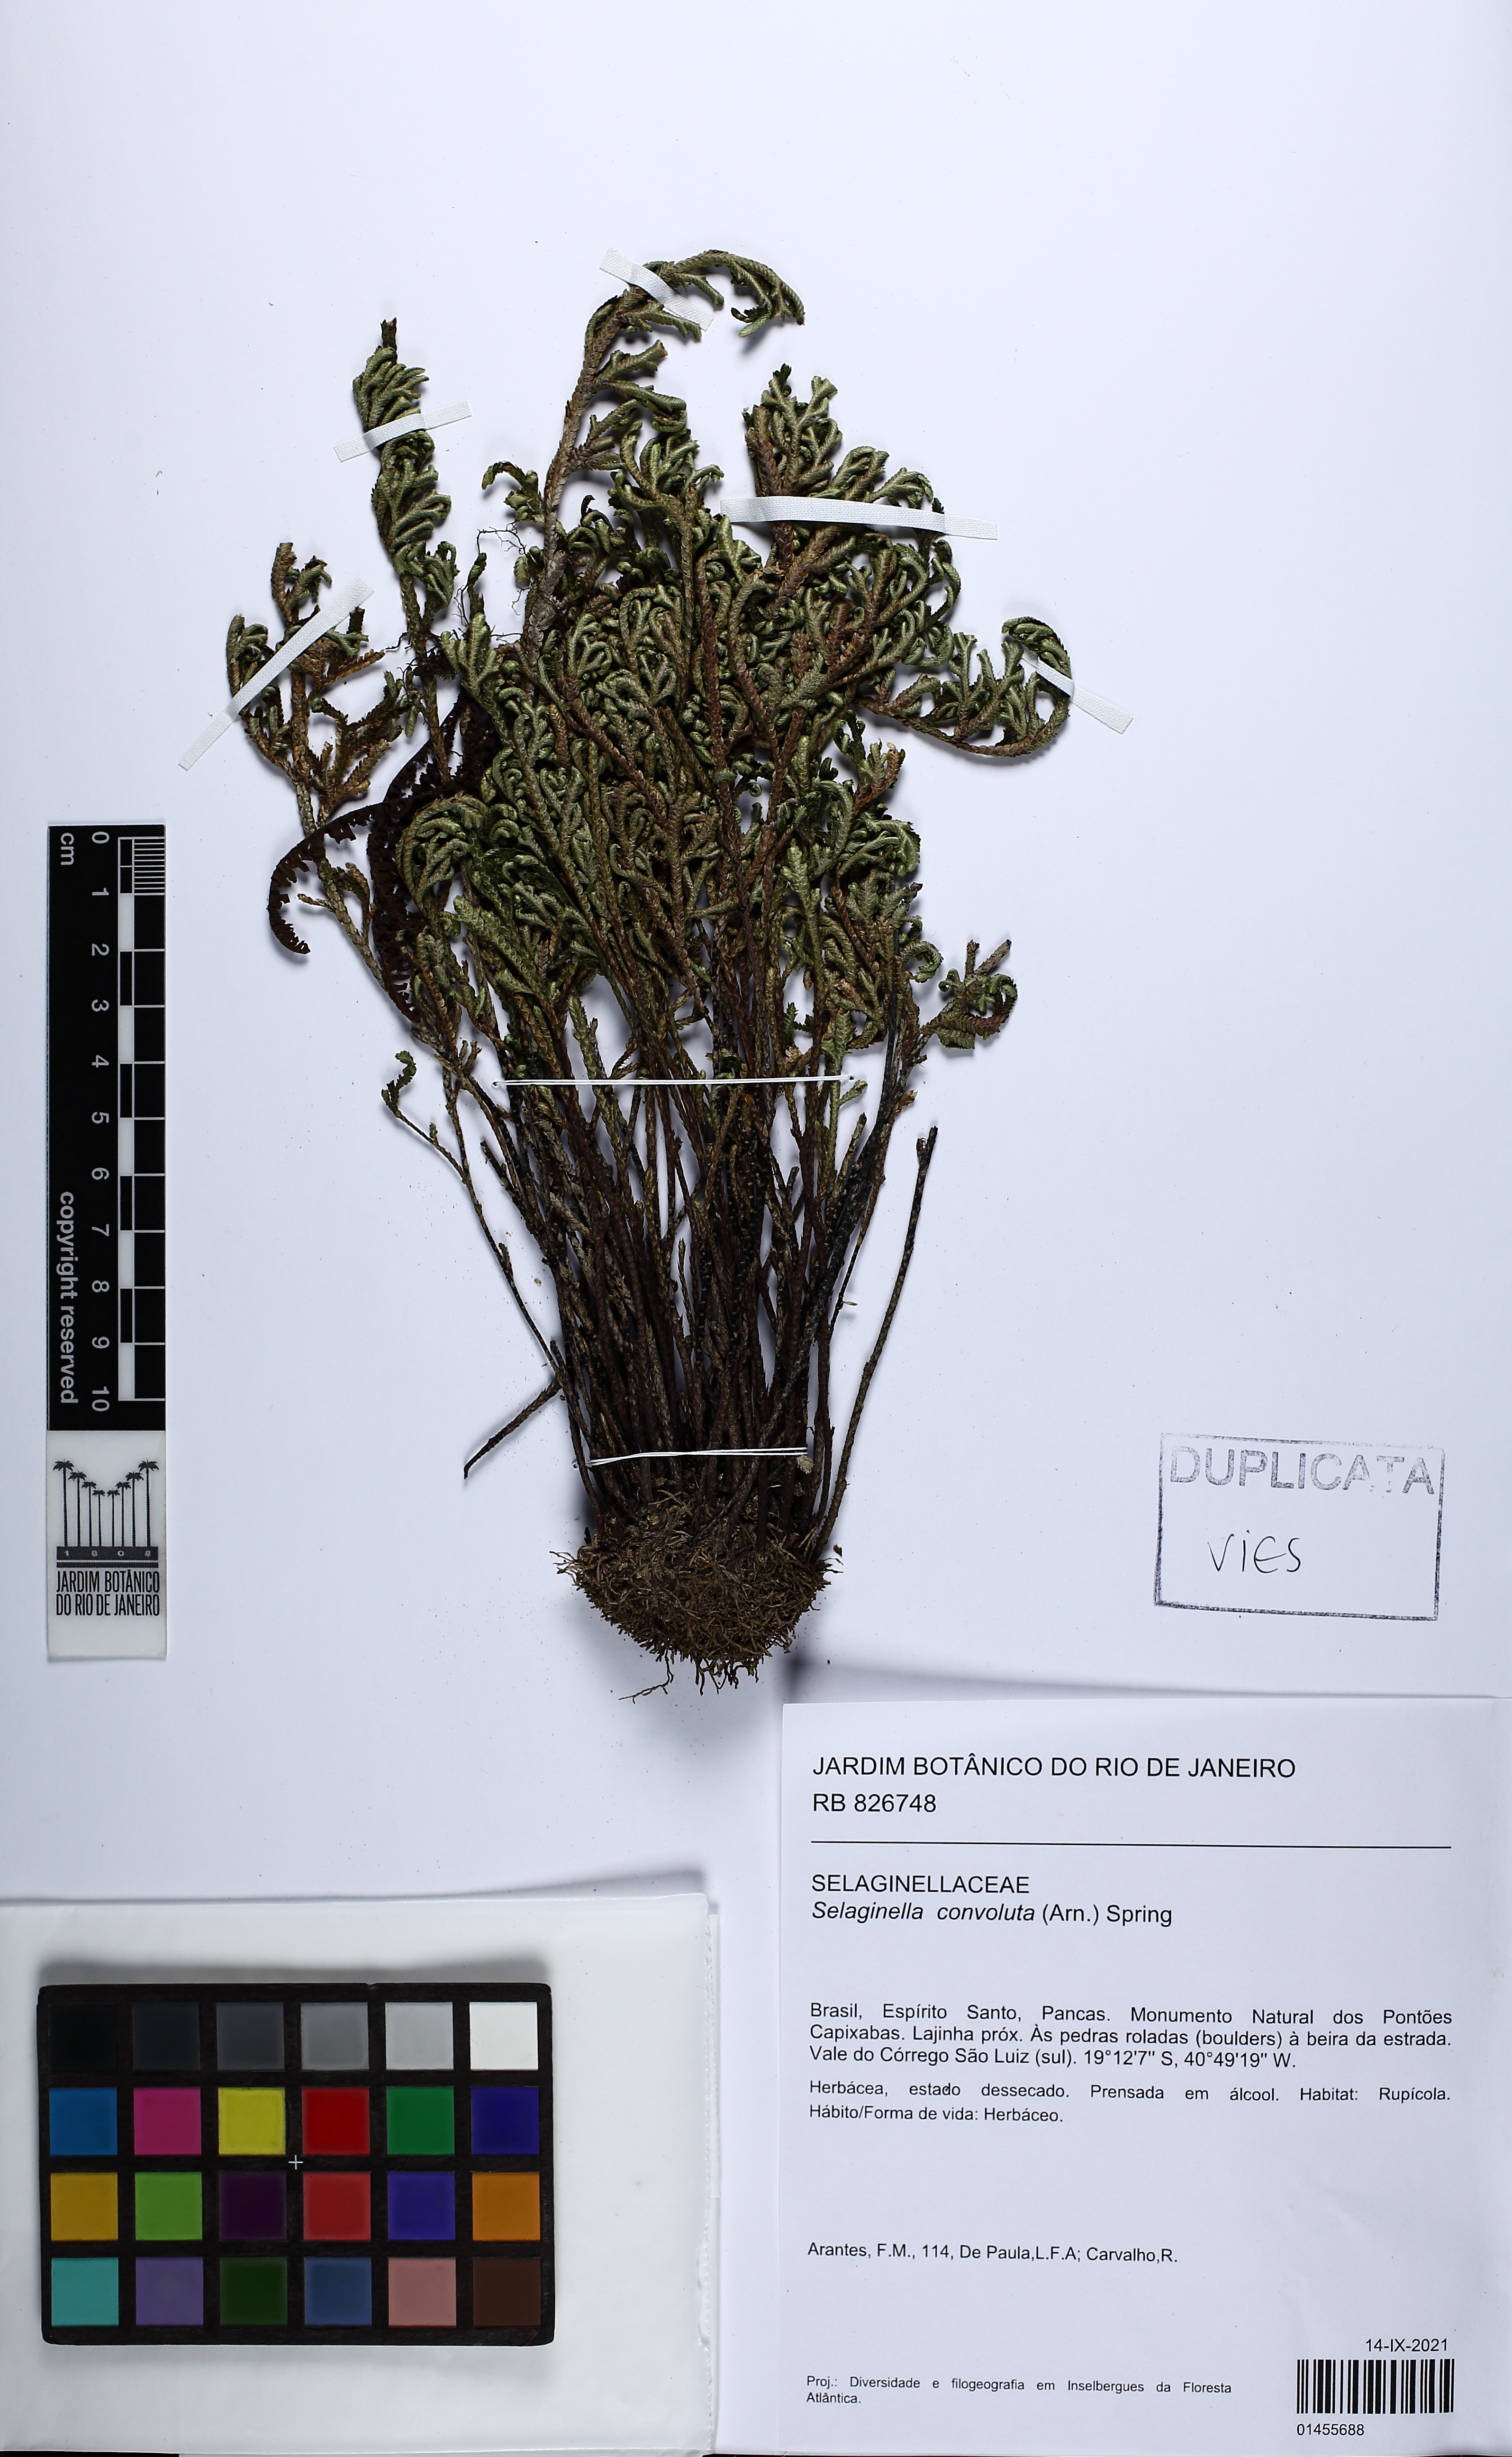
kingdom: Plantae
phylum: Tracheophyta
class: Lycopodiopsida
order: Selaginellales
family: Selaginellaceae
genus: Selaginella
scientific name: Selaginella convoluta
